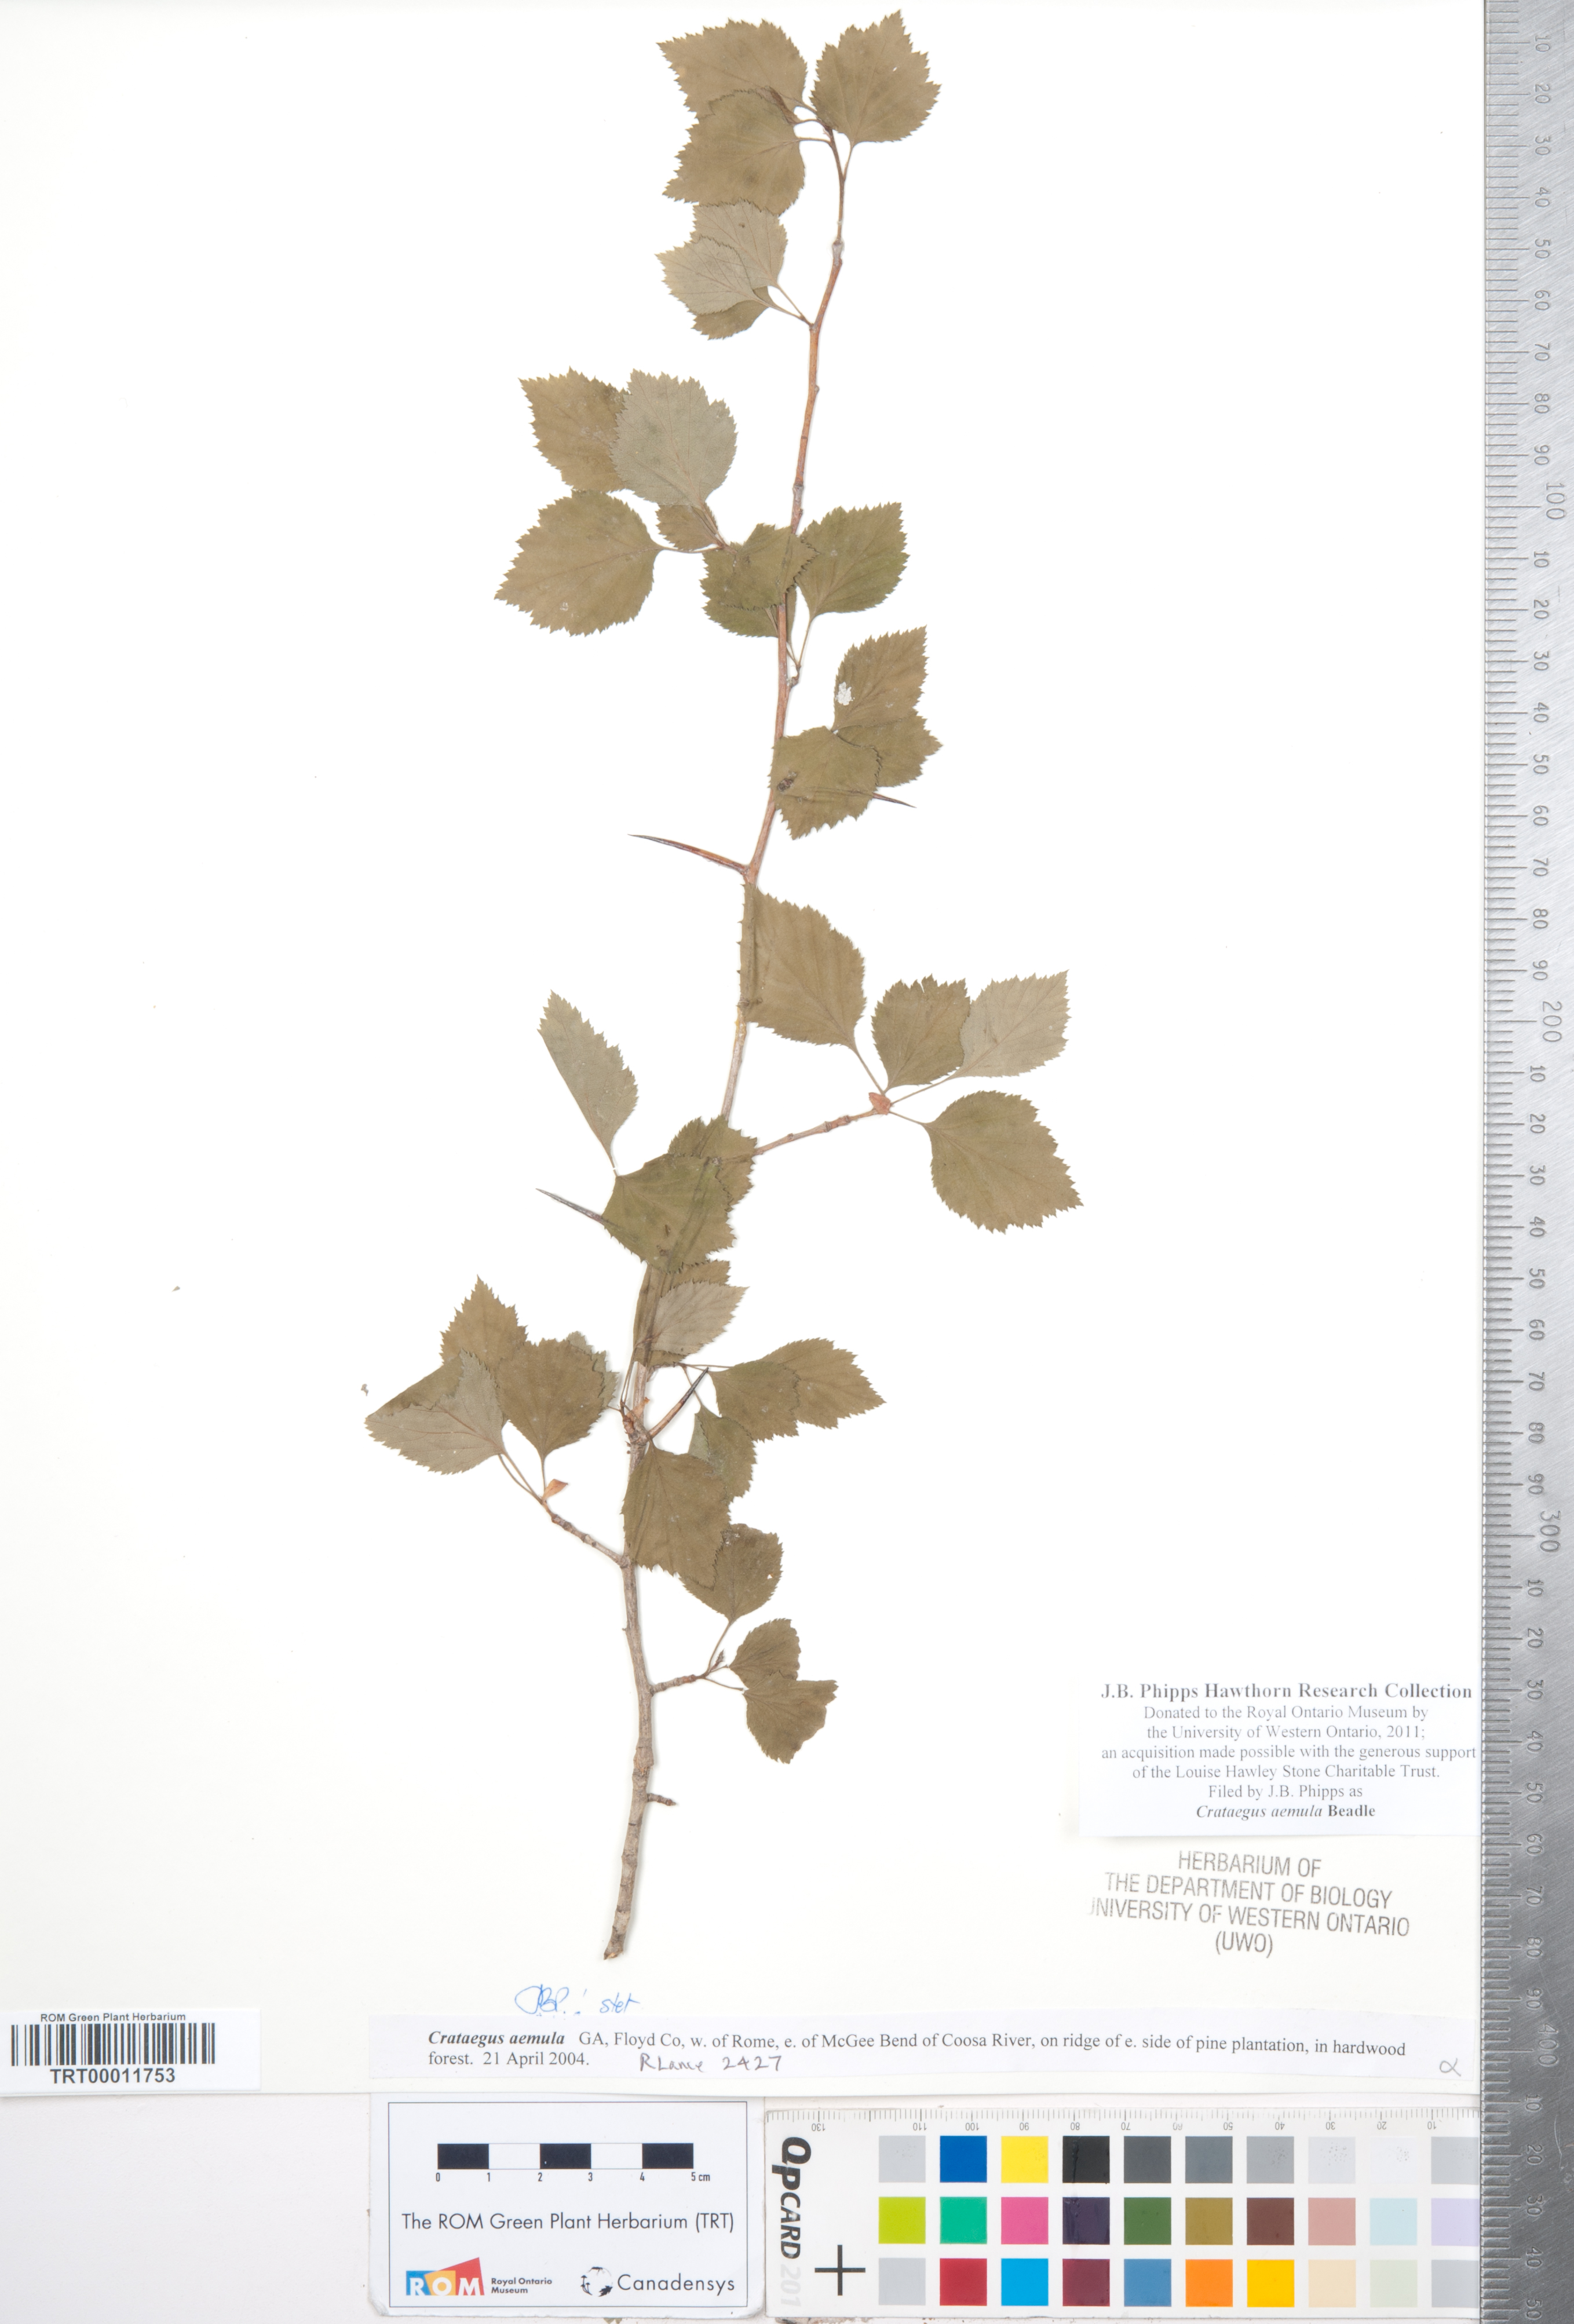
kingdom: Plantae
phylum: Tracheophyta
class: Magnoliopsida
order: Rosales
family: Rosaceae
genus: Crataegus
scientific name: Crataegus iracunda
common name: Stolon-bearing hawthorn
